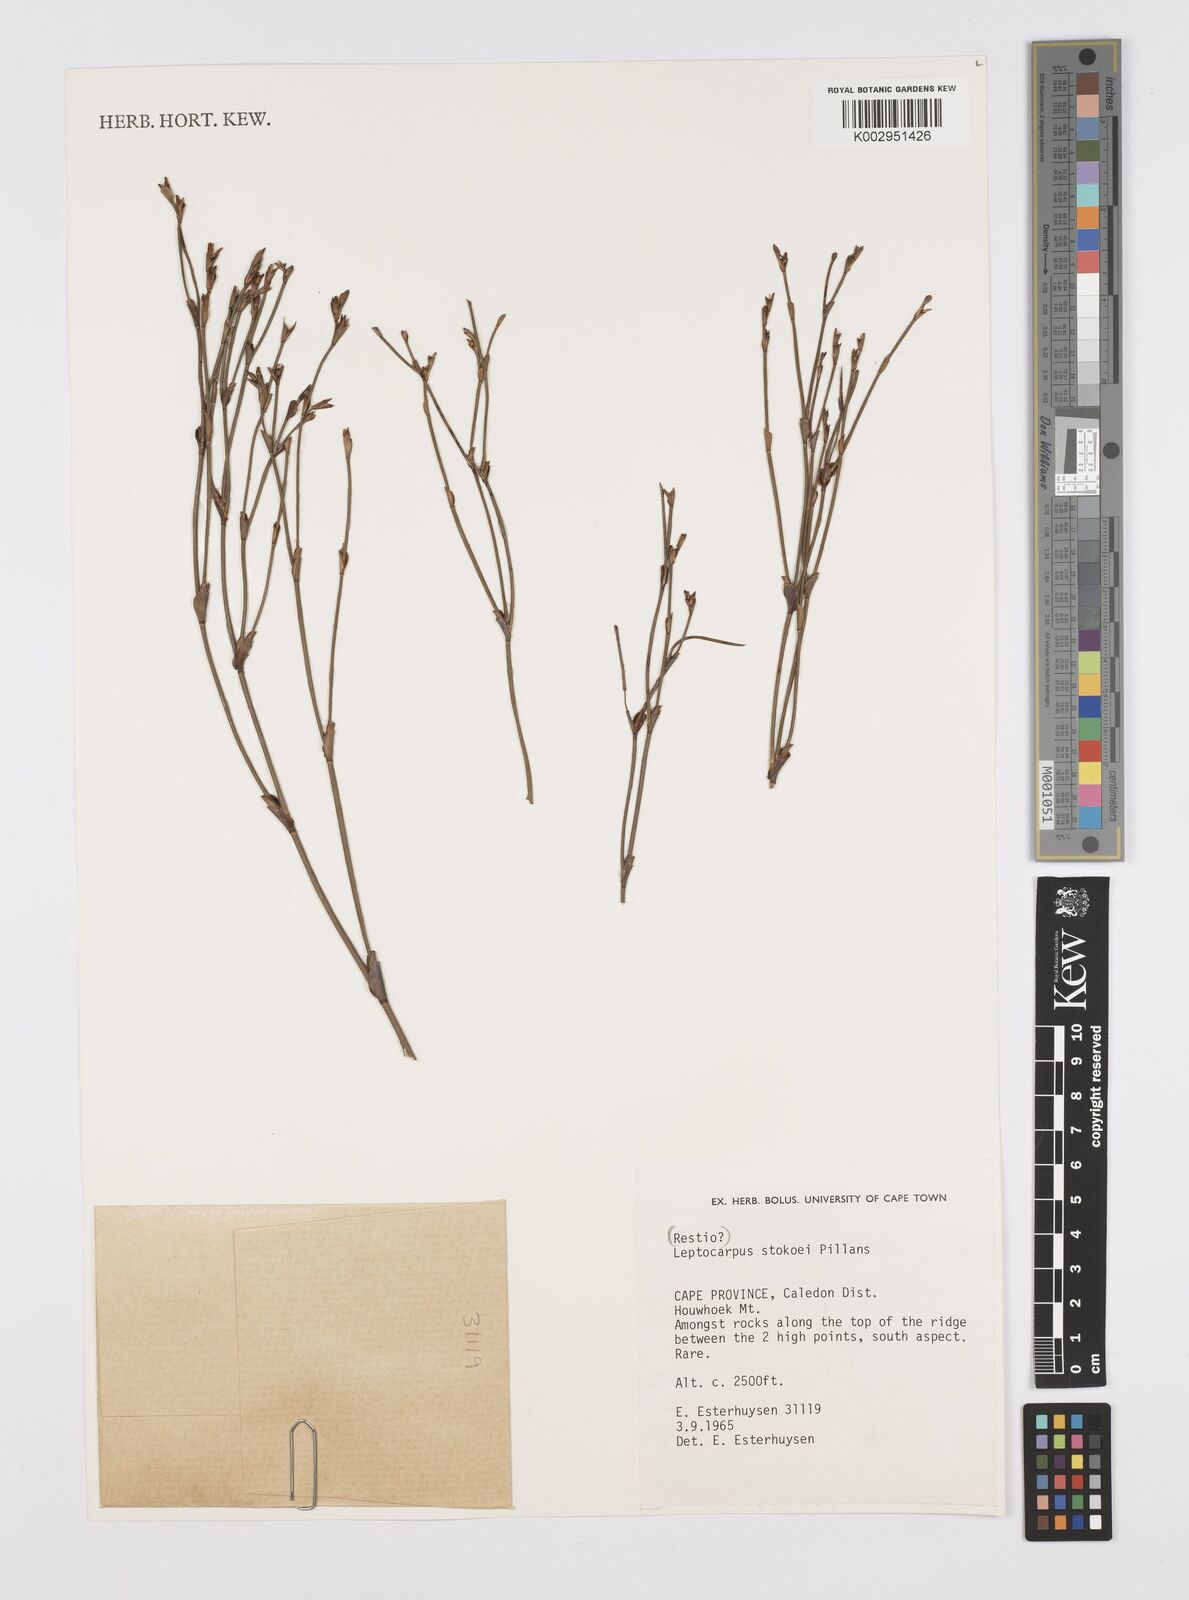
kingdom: Plantae
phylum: Tracheophyta
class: Liliopsida
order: Poales
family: Restionaceae
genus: Restio
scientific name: Restio pillansii
